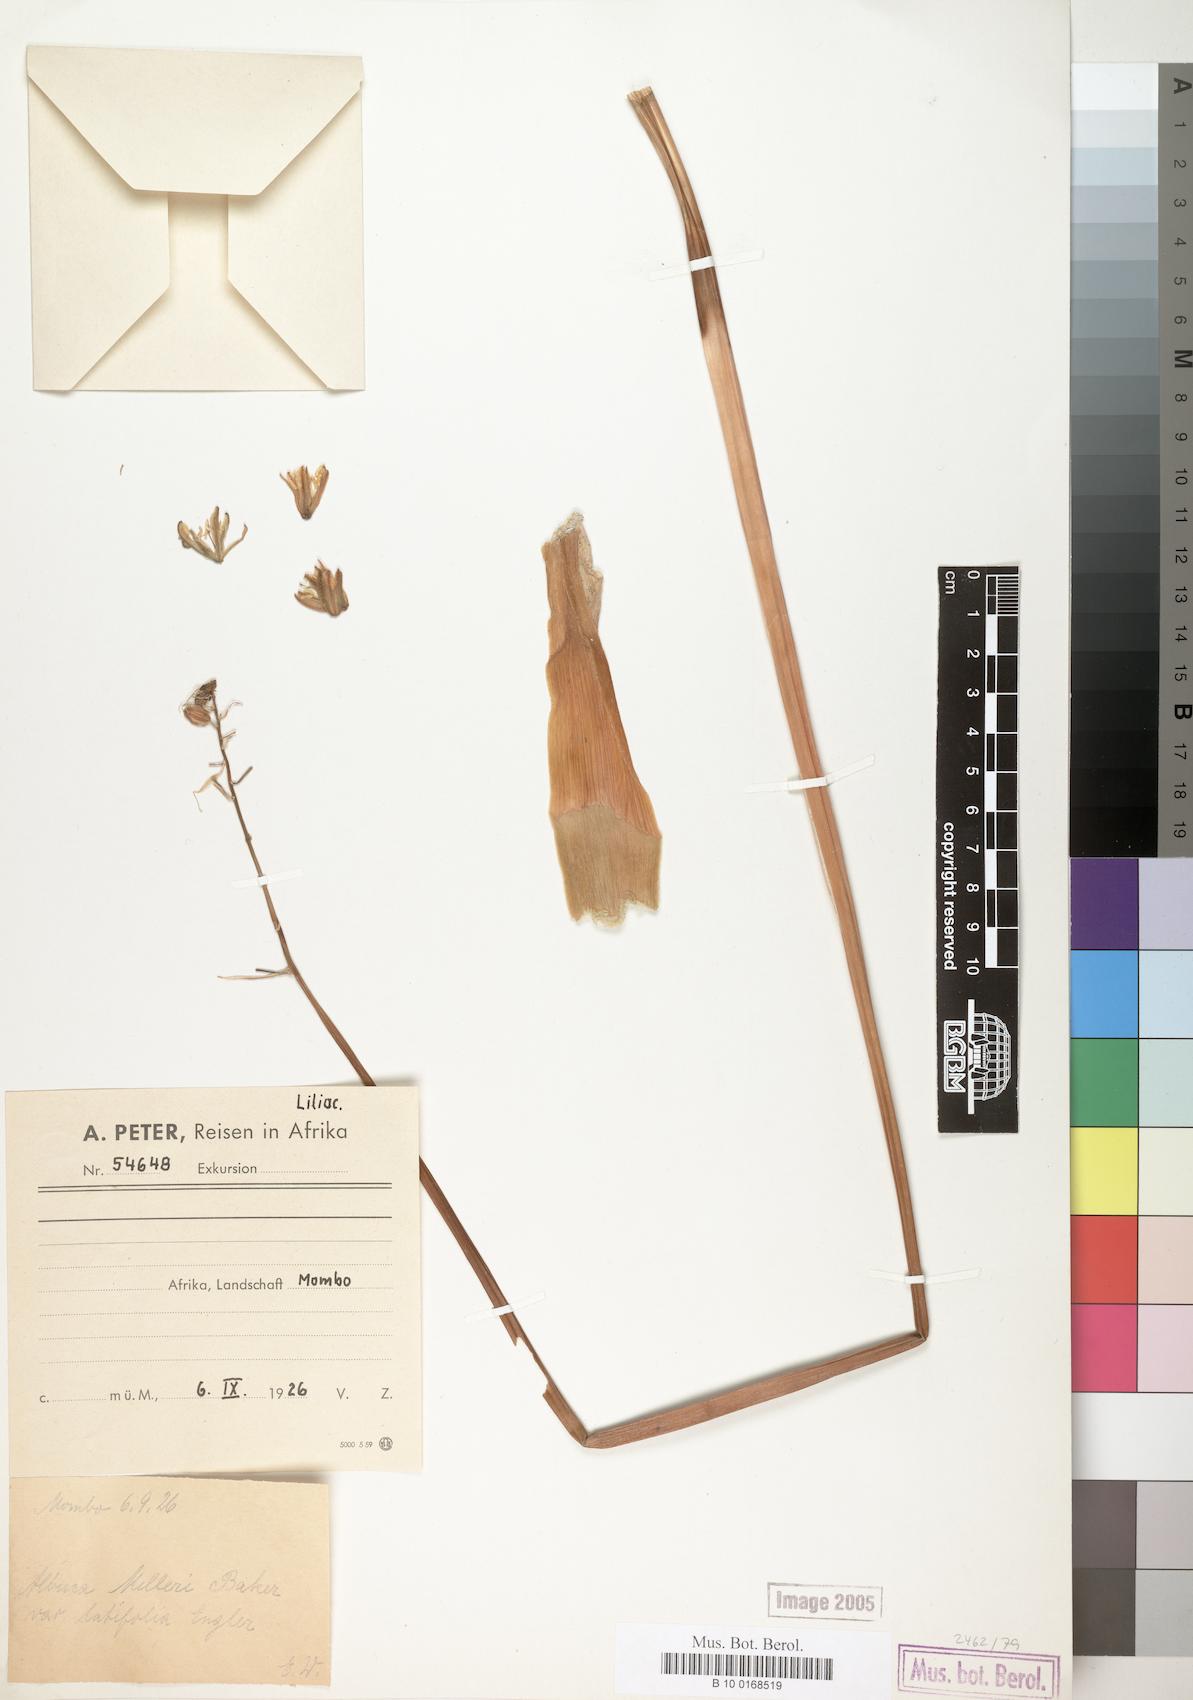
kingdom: Plantae
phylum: Tracheophyta
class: Liliopsida
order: Asparagales
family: Asparagaceae
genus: Albuca
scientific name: Albuca abyssinica
